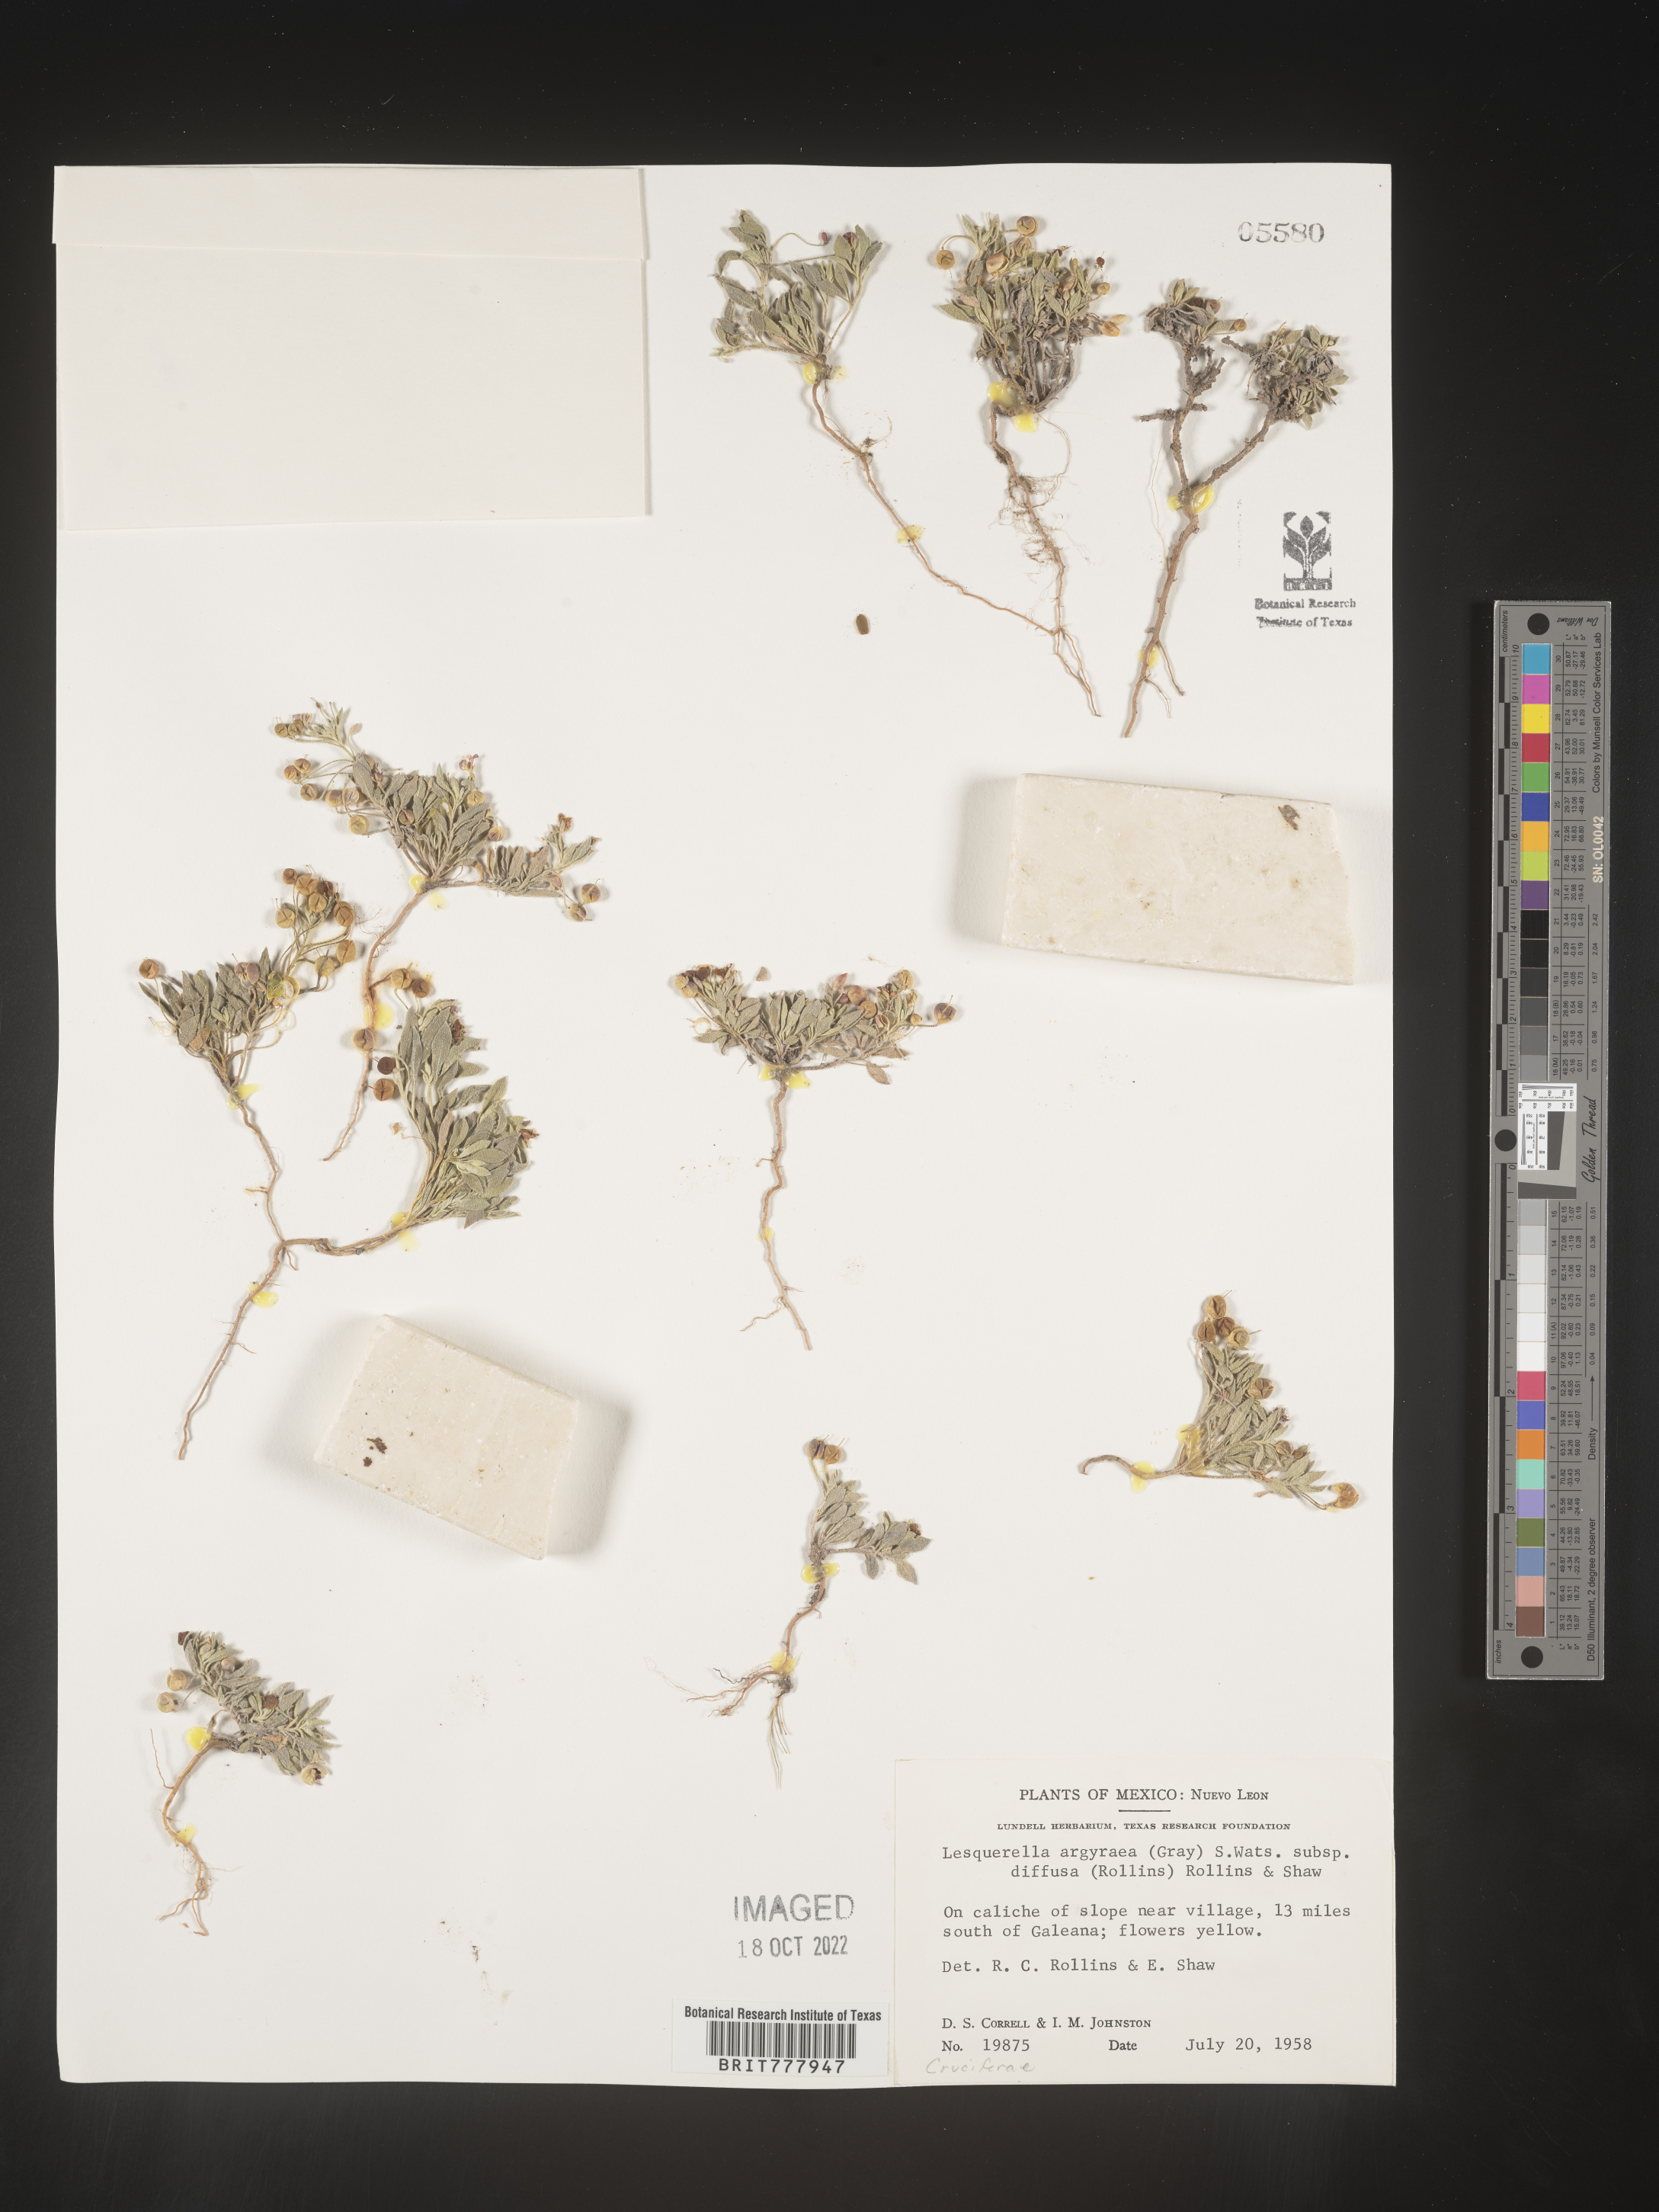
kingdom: Chromista
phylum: Cercozoa
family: Psammonobiotidae
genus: Lesquerella
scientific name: Lesquerella
